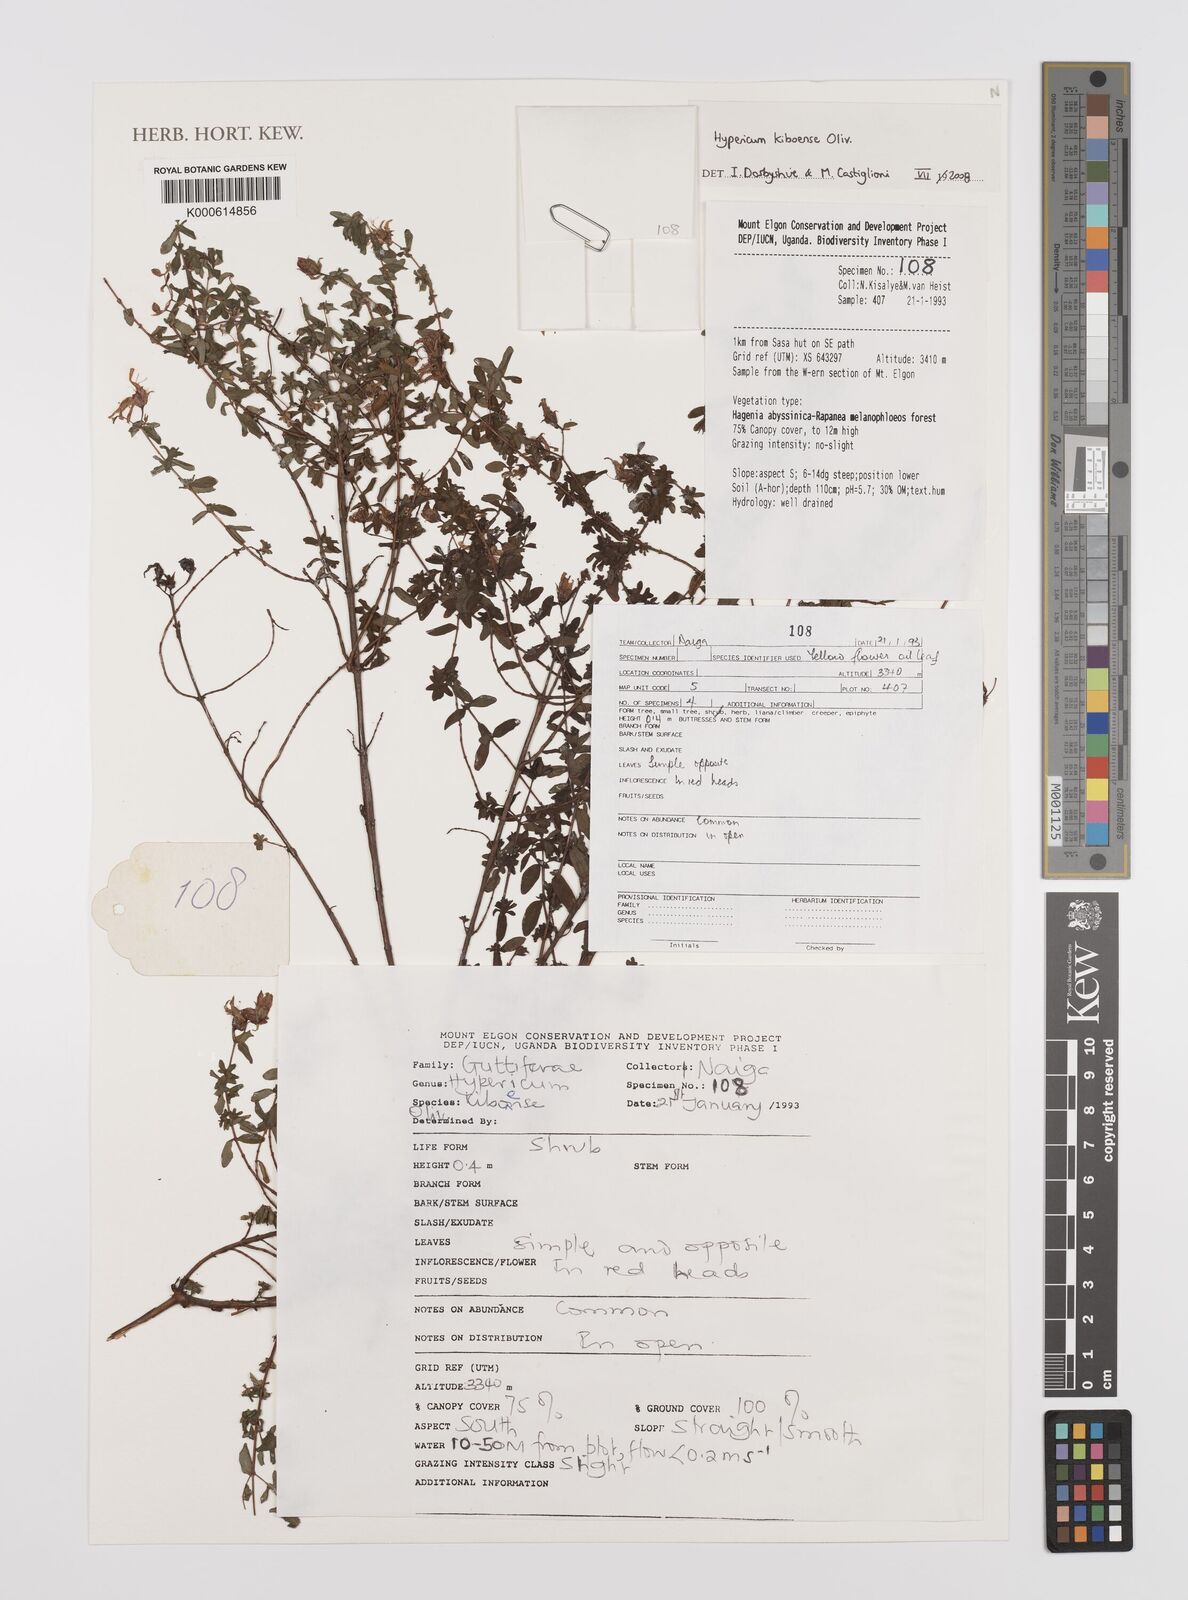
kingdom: Plantae
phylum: Tracheophyta
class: Magnoliopsida
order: Malpighiales
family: Hypericaceae
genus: Hypericum
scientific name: Hypericum kiboense
